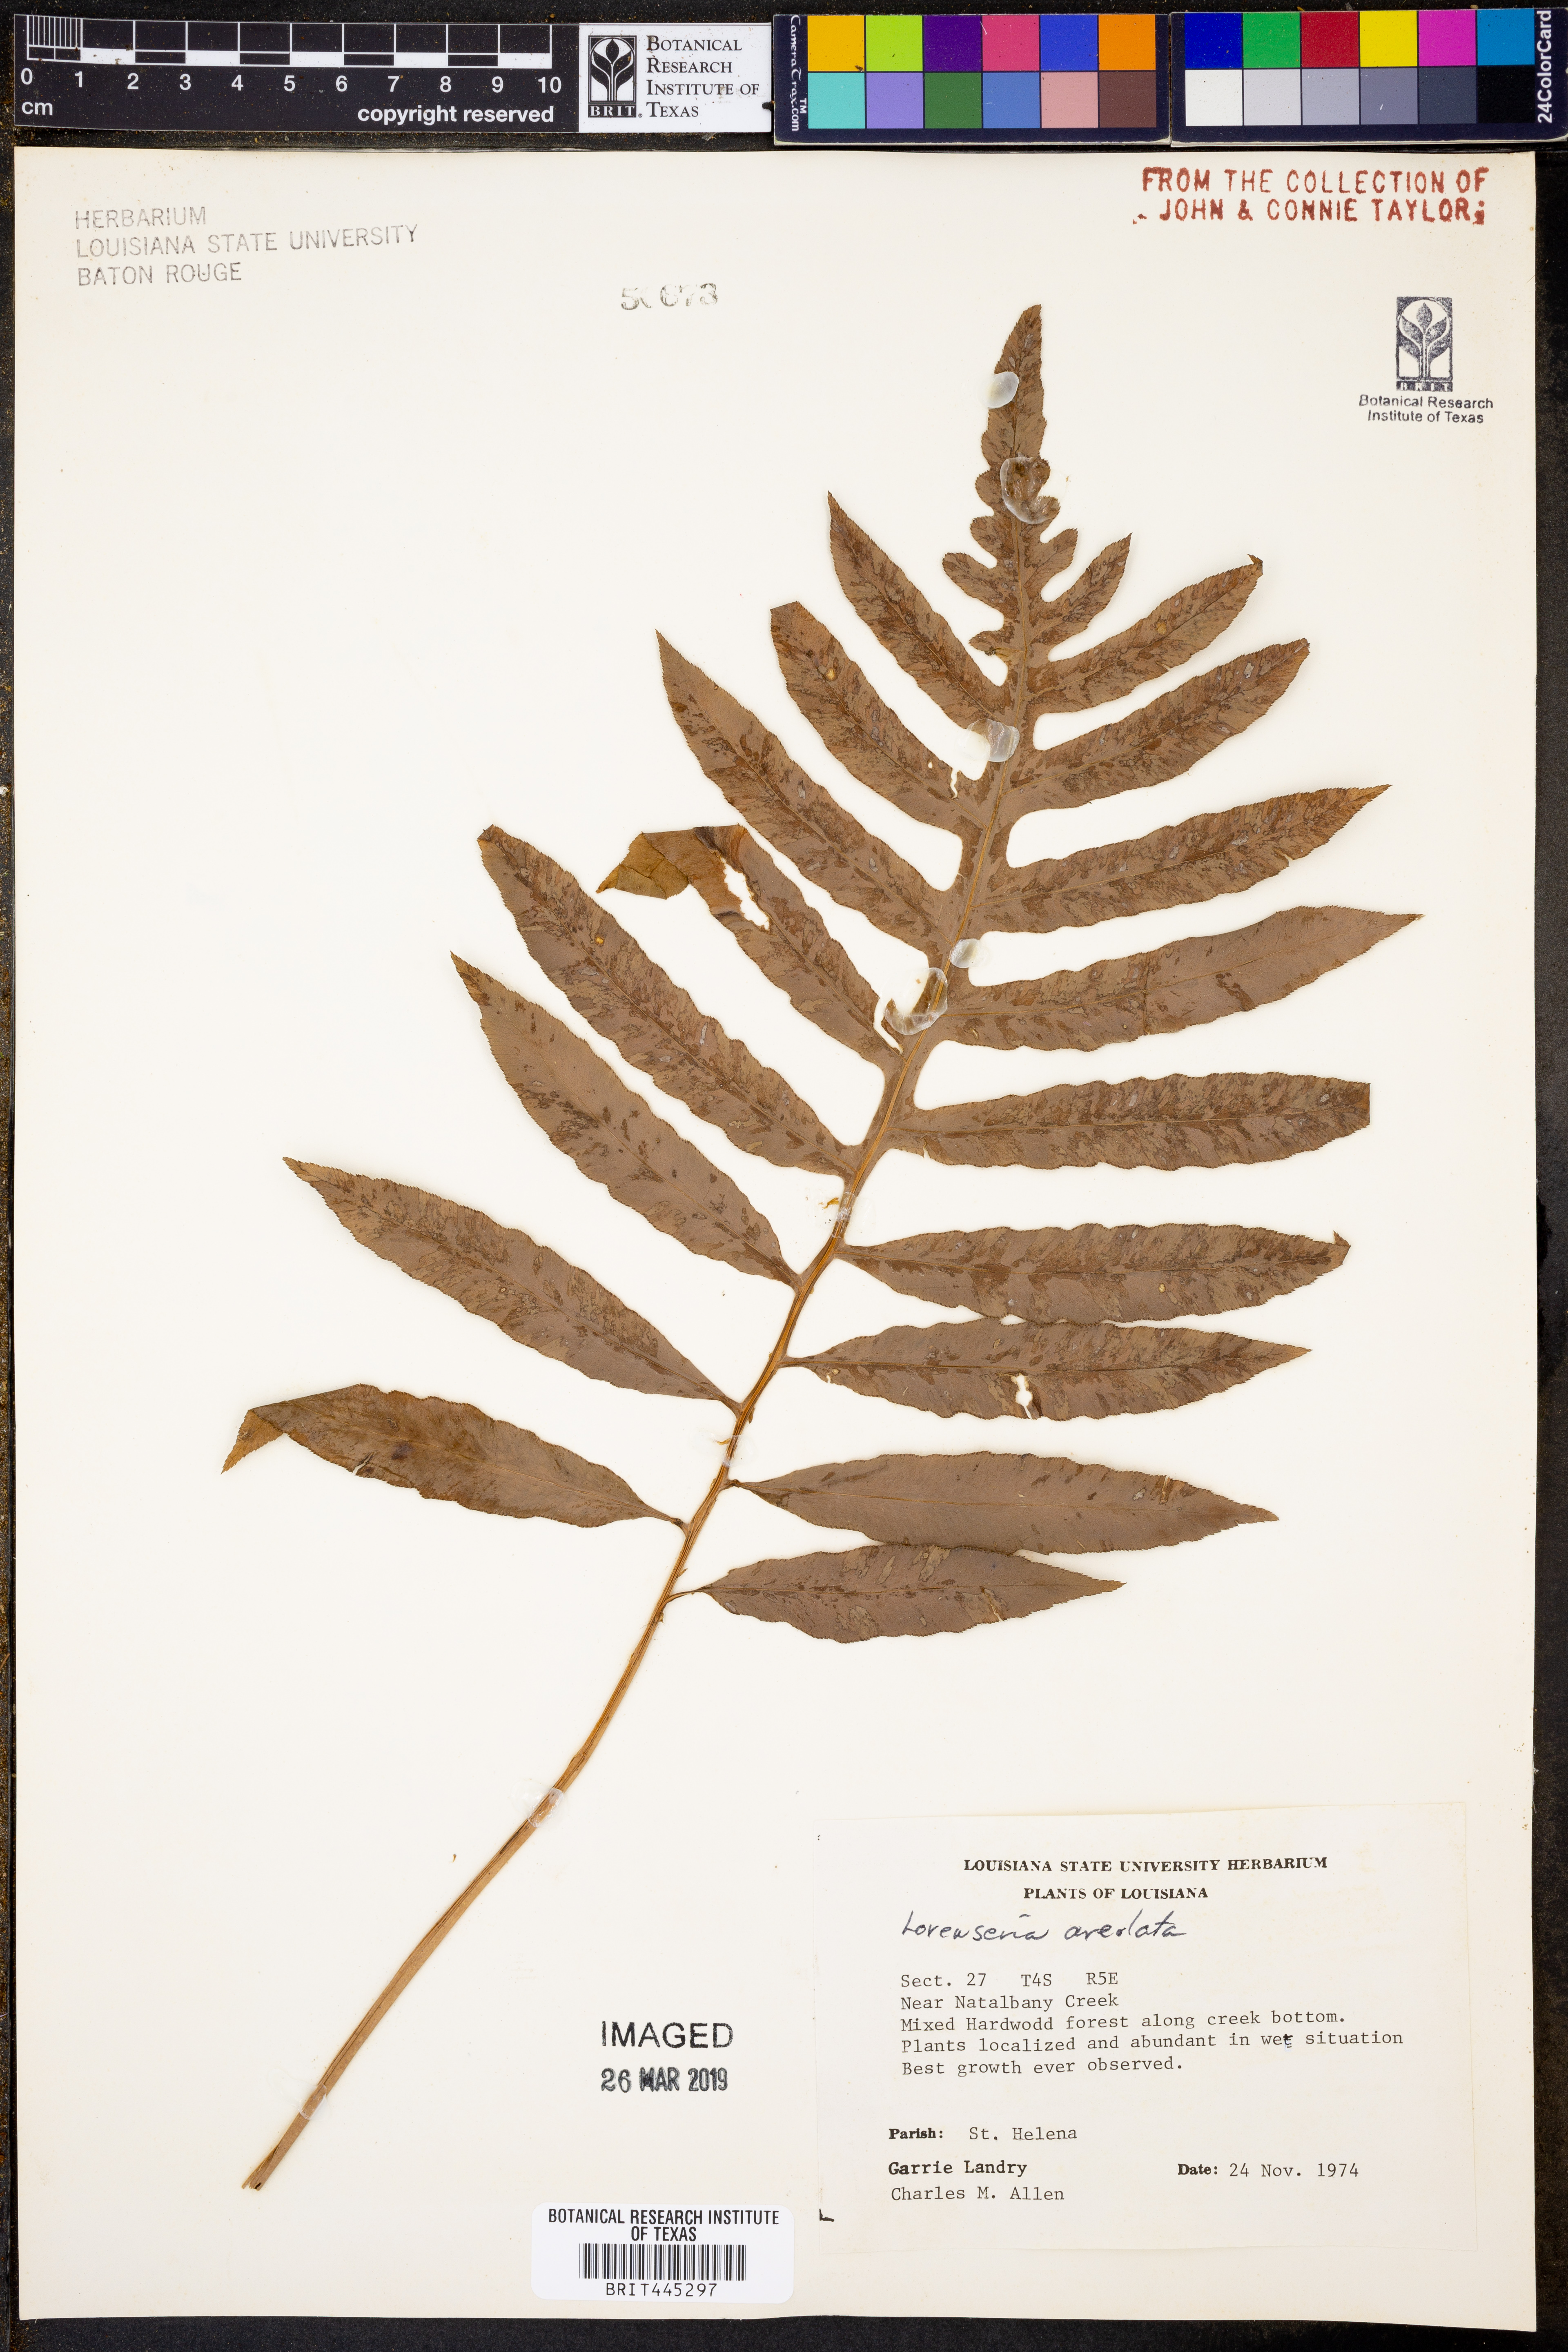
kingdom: Plantae
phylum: Tracheophyta
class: Polypodiopsida
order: Polypodiales
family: Blechnaceae
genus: Lorinseria
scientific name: Lorinseria areolata
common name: Dwarf chain fern
